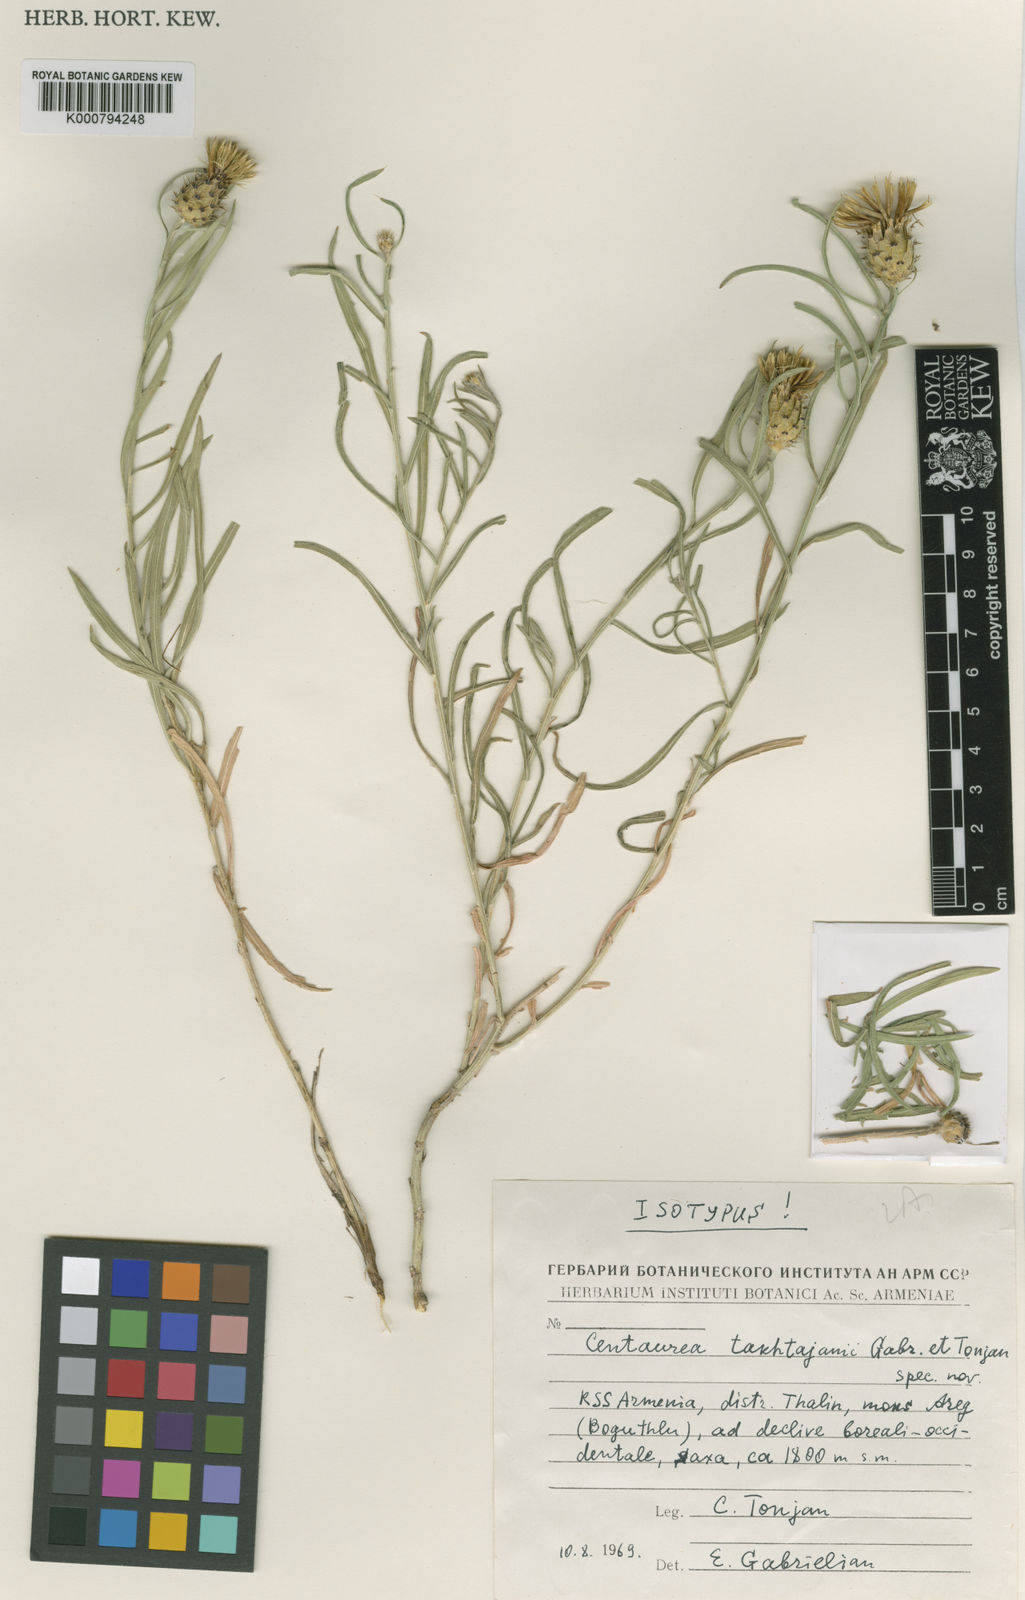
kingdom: Plantae
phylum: Tracheophyta
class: Magnoliopsida
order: Asterales
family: Asteraceae
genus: Centaurea
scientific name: Centaurea takhtajanii
